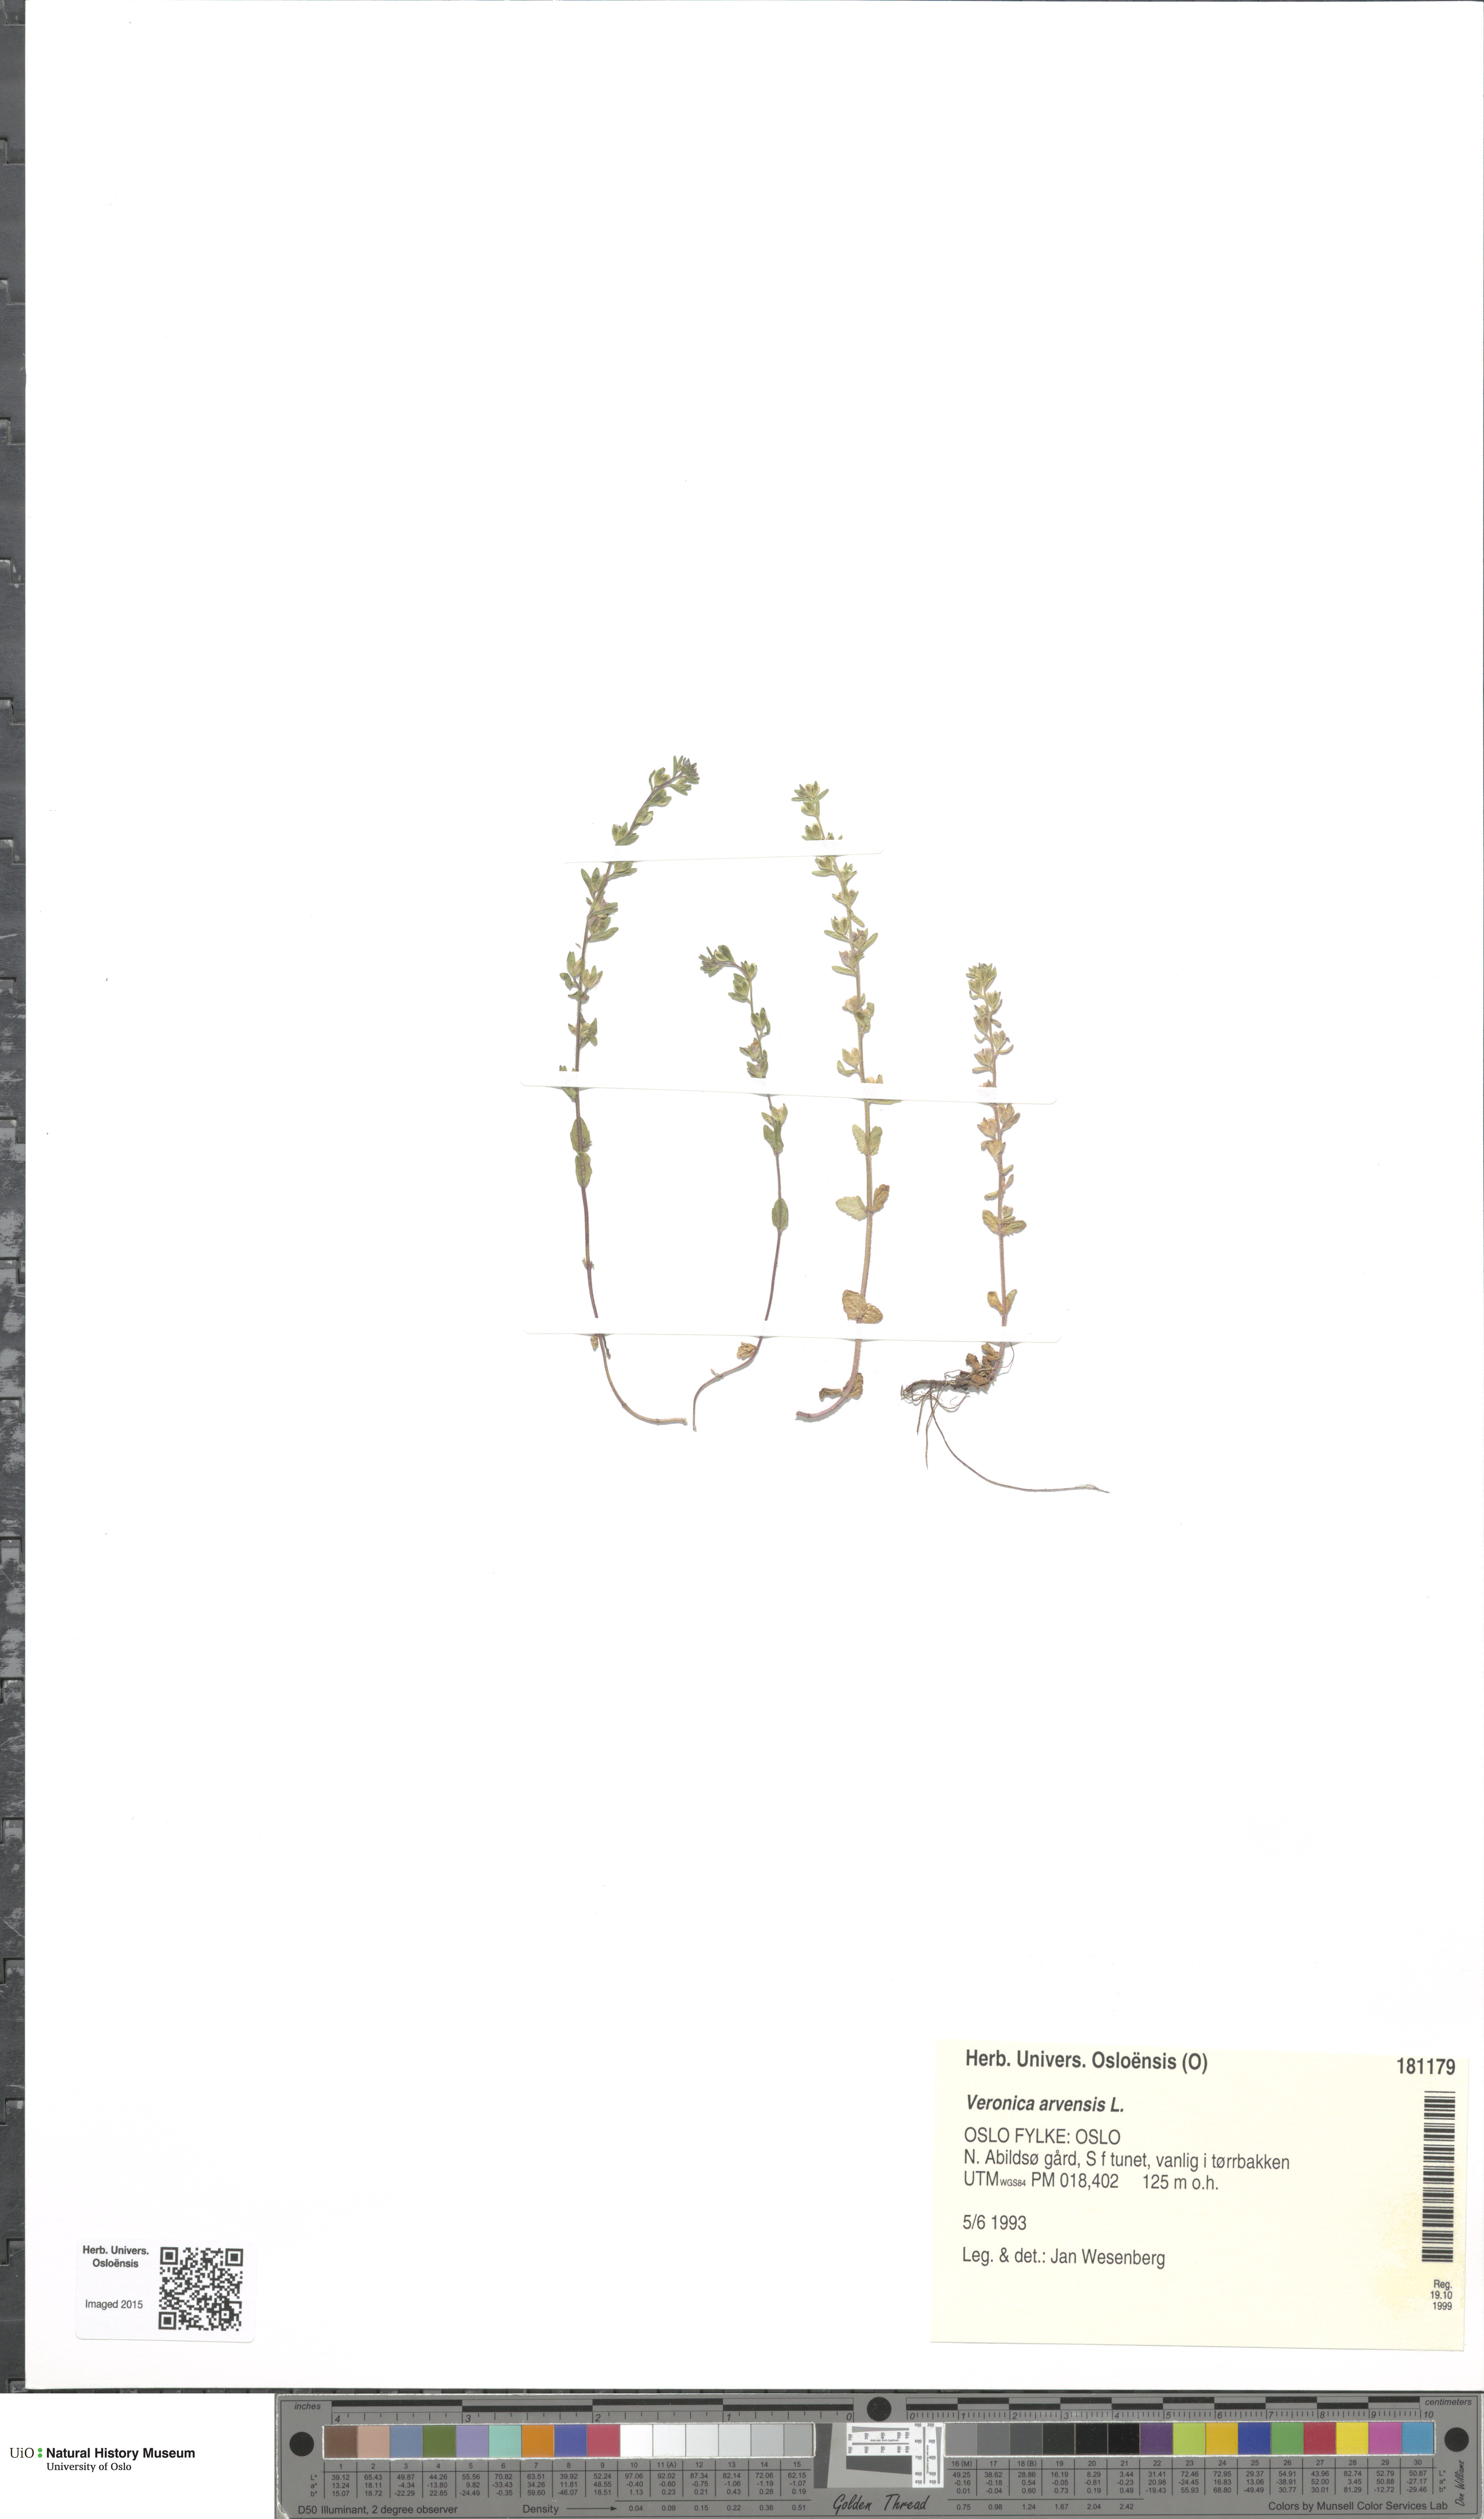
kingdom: Plantae
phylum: Tracheophyta
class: Magnoliopsida
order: Lamiales
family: Plantaginaceae
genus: Veronica
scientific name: Veronica arvensis
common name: Corn speedwell
